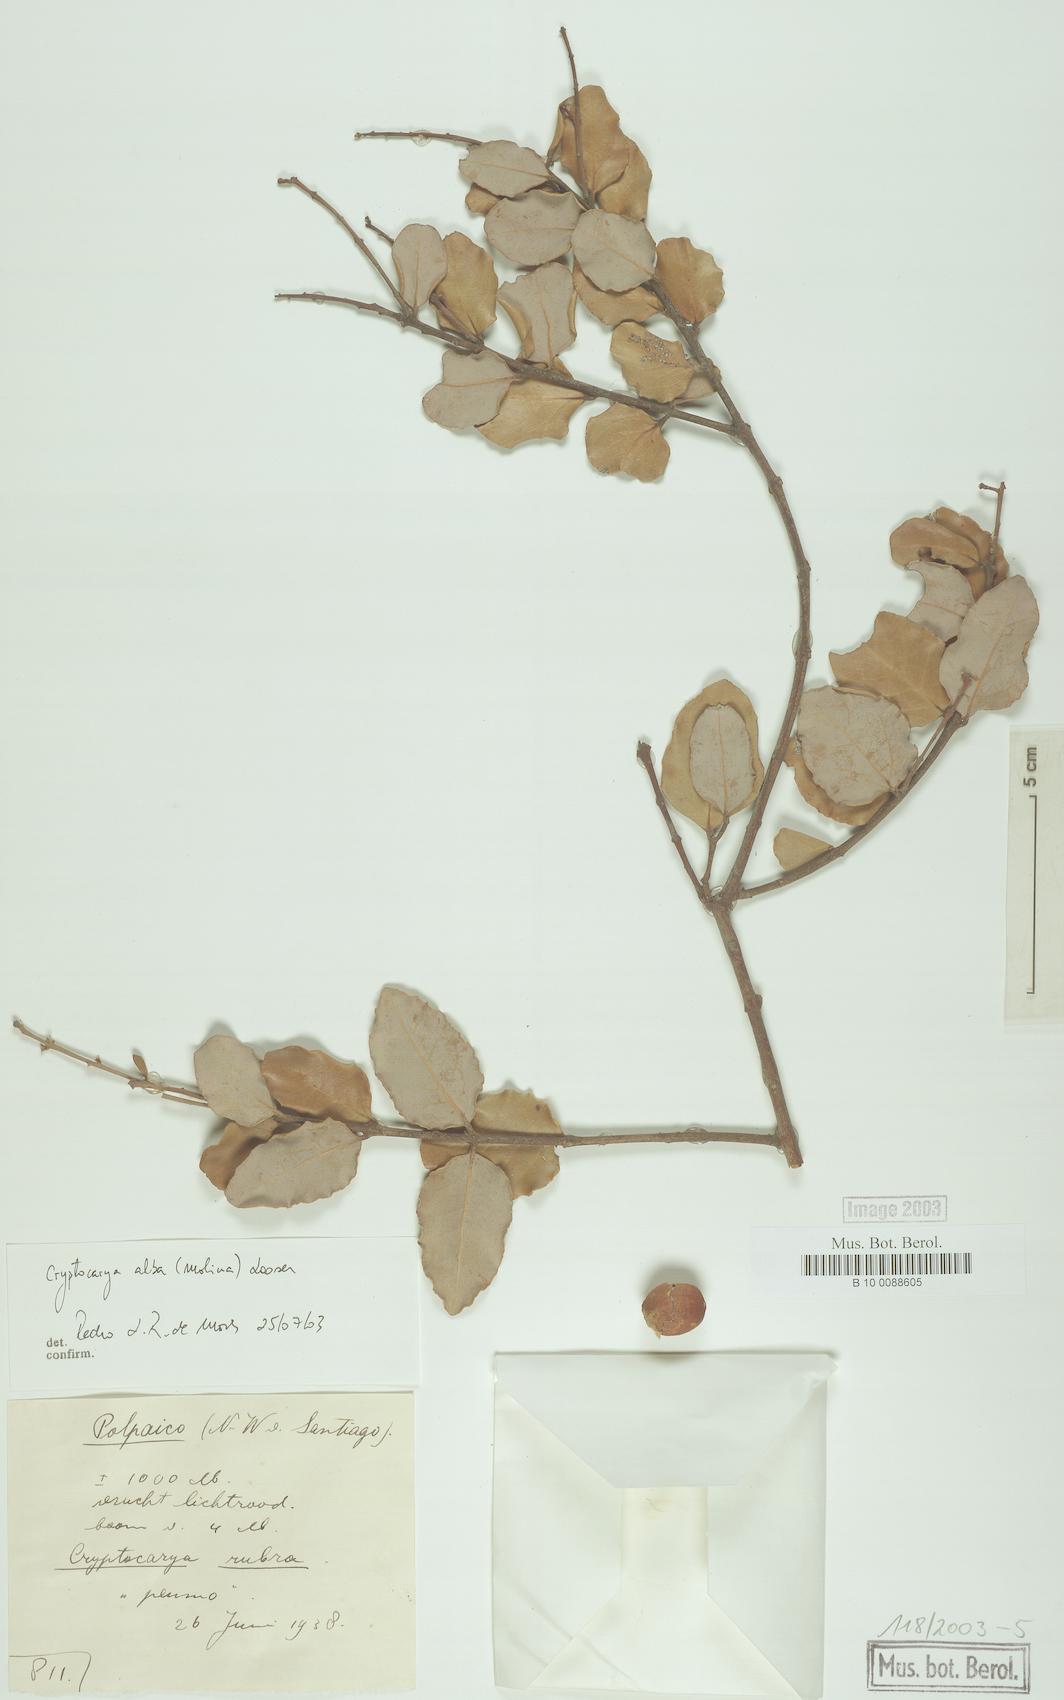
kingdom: Plantae
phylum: Tracheophyta
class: Magnoliopsida
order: Laurales
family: Lauraceae
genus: Cryptocarya
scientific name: Cryptocarya alba
